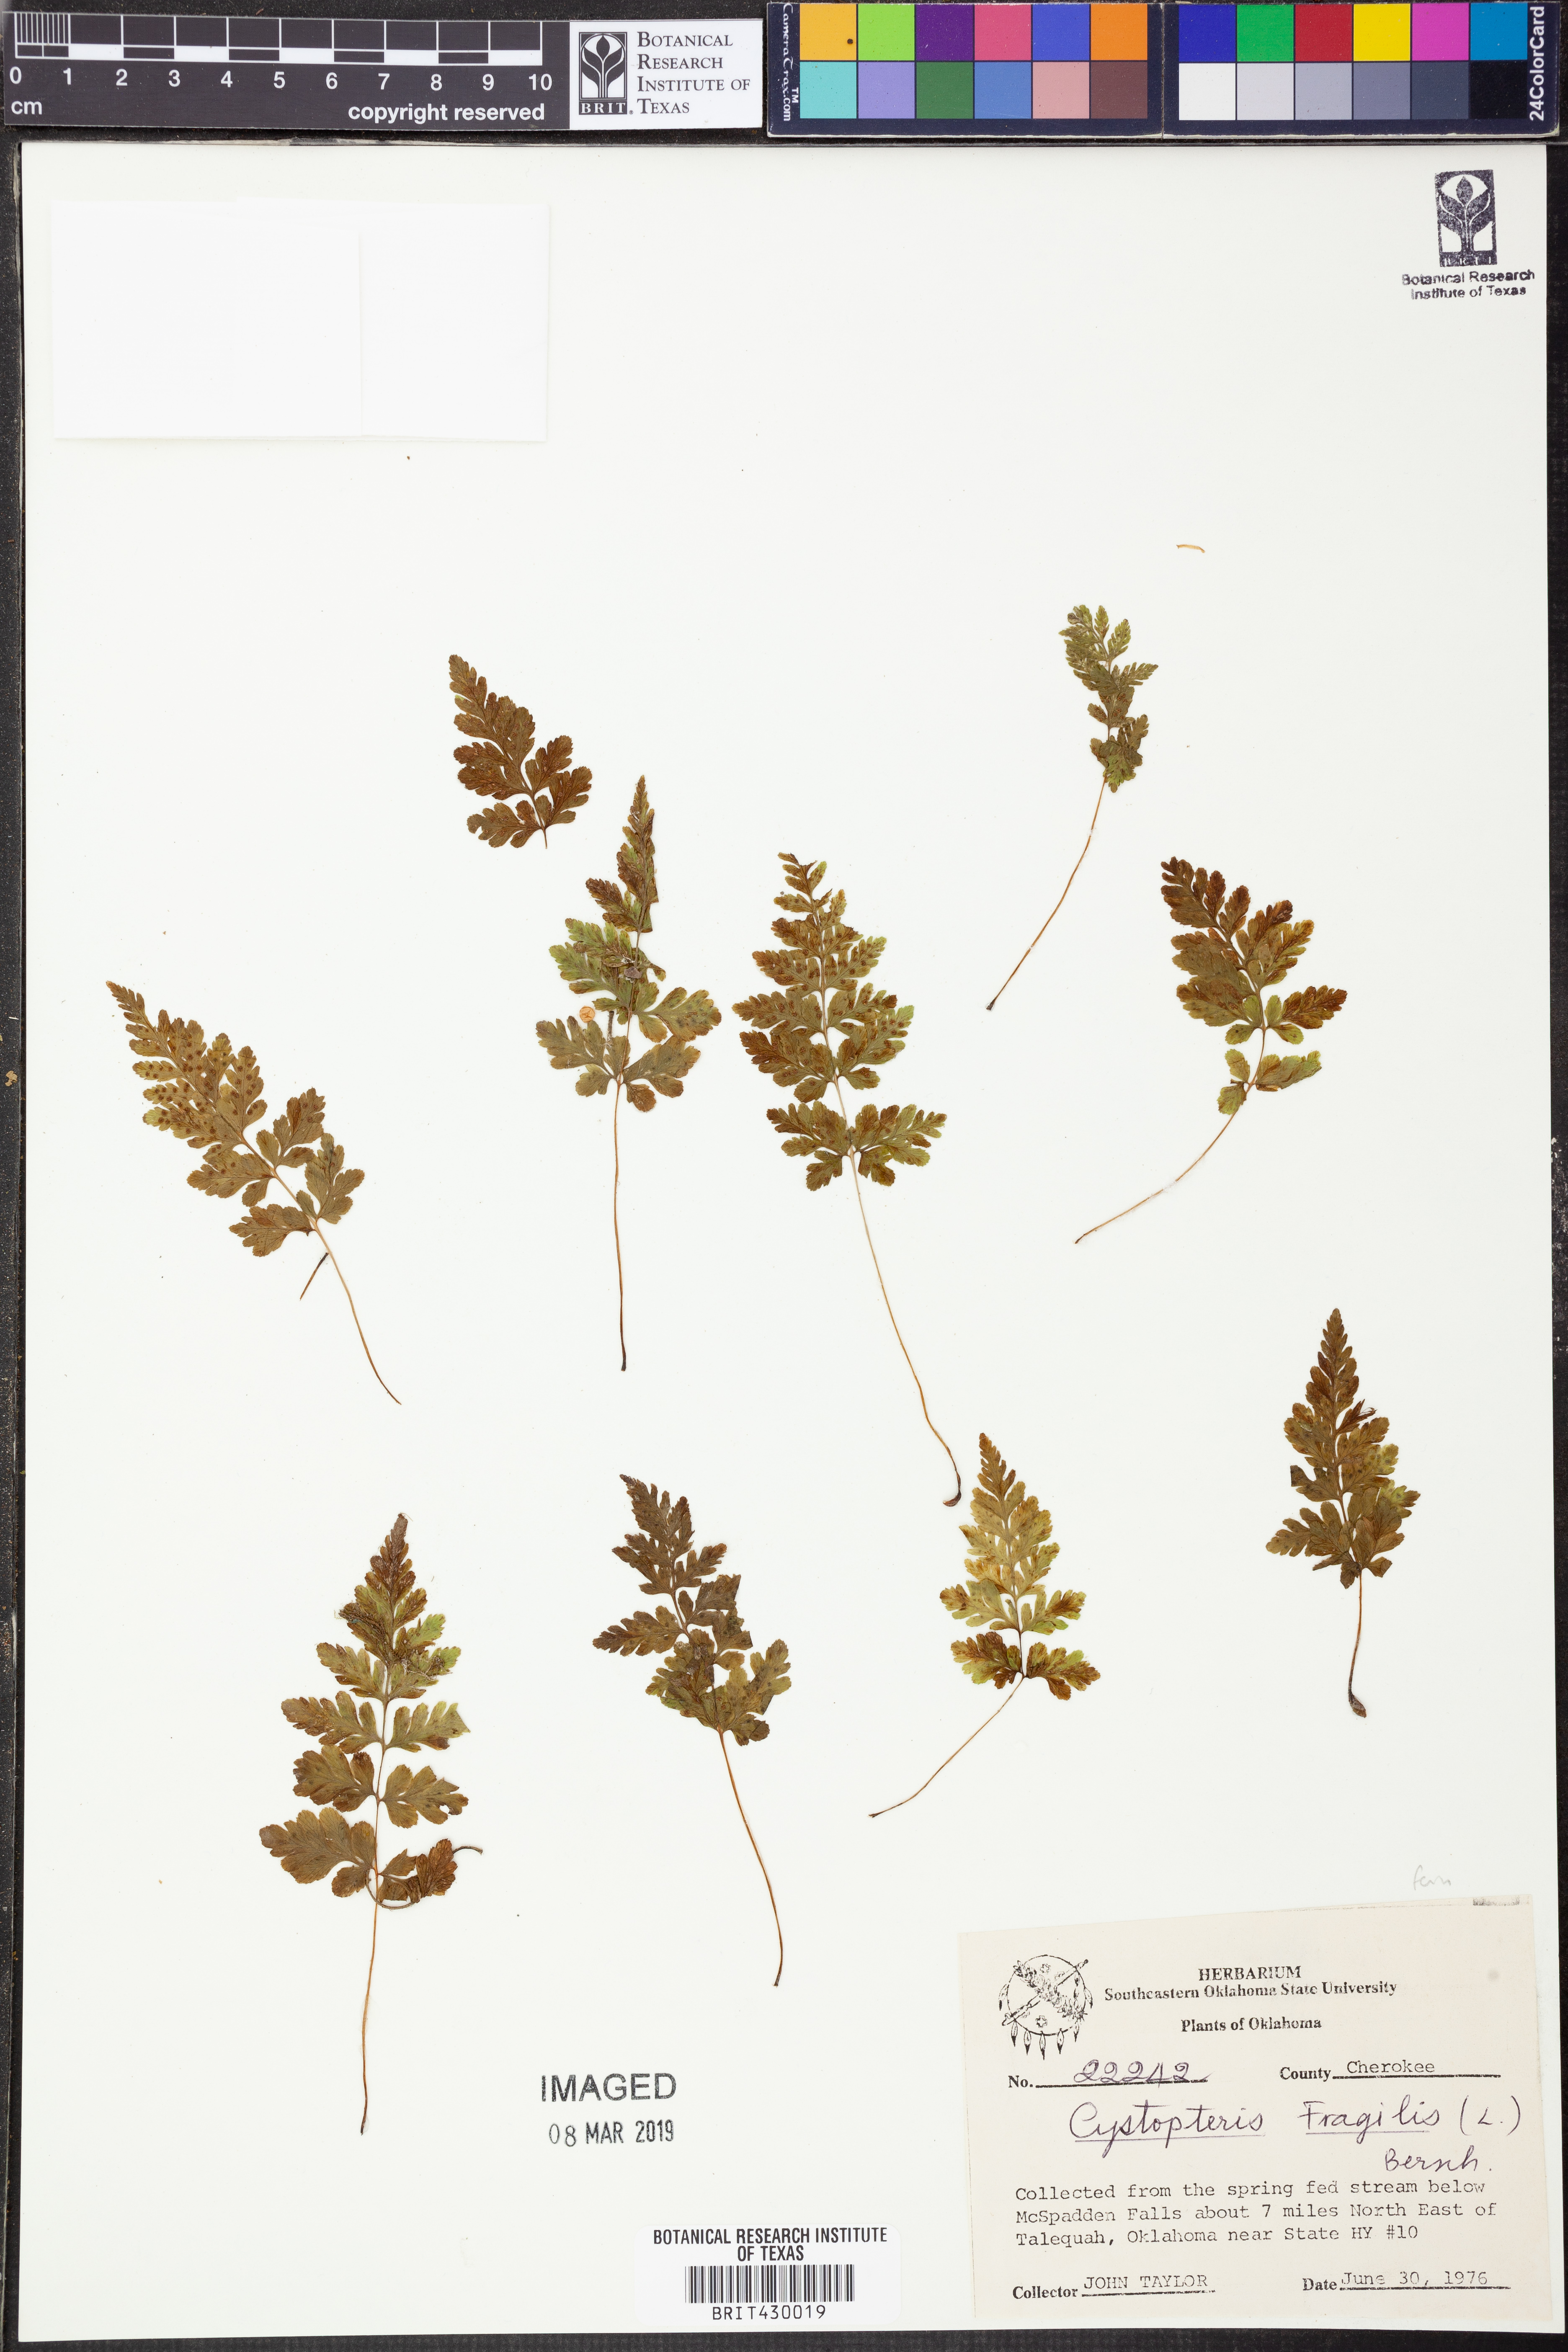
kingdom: Plantae
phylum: Tracheophyta
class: Polypodiopsida
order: Polypodiales
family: Cystopteridaceae
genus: Cystopteris
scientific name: Cystopteris fragilis
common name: Brittle bladder fern
